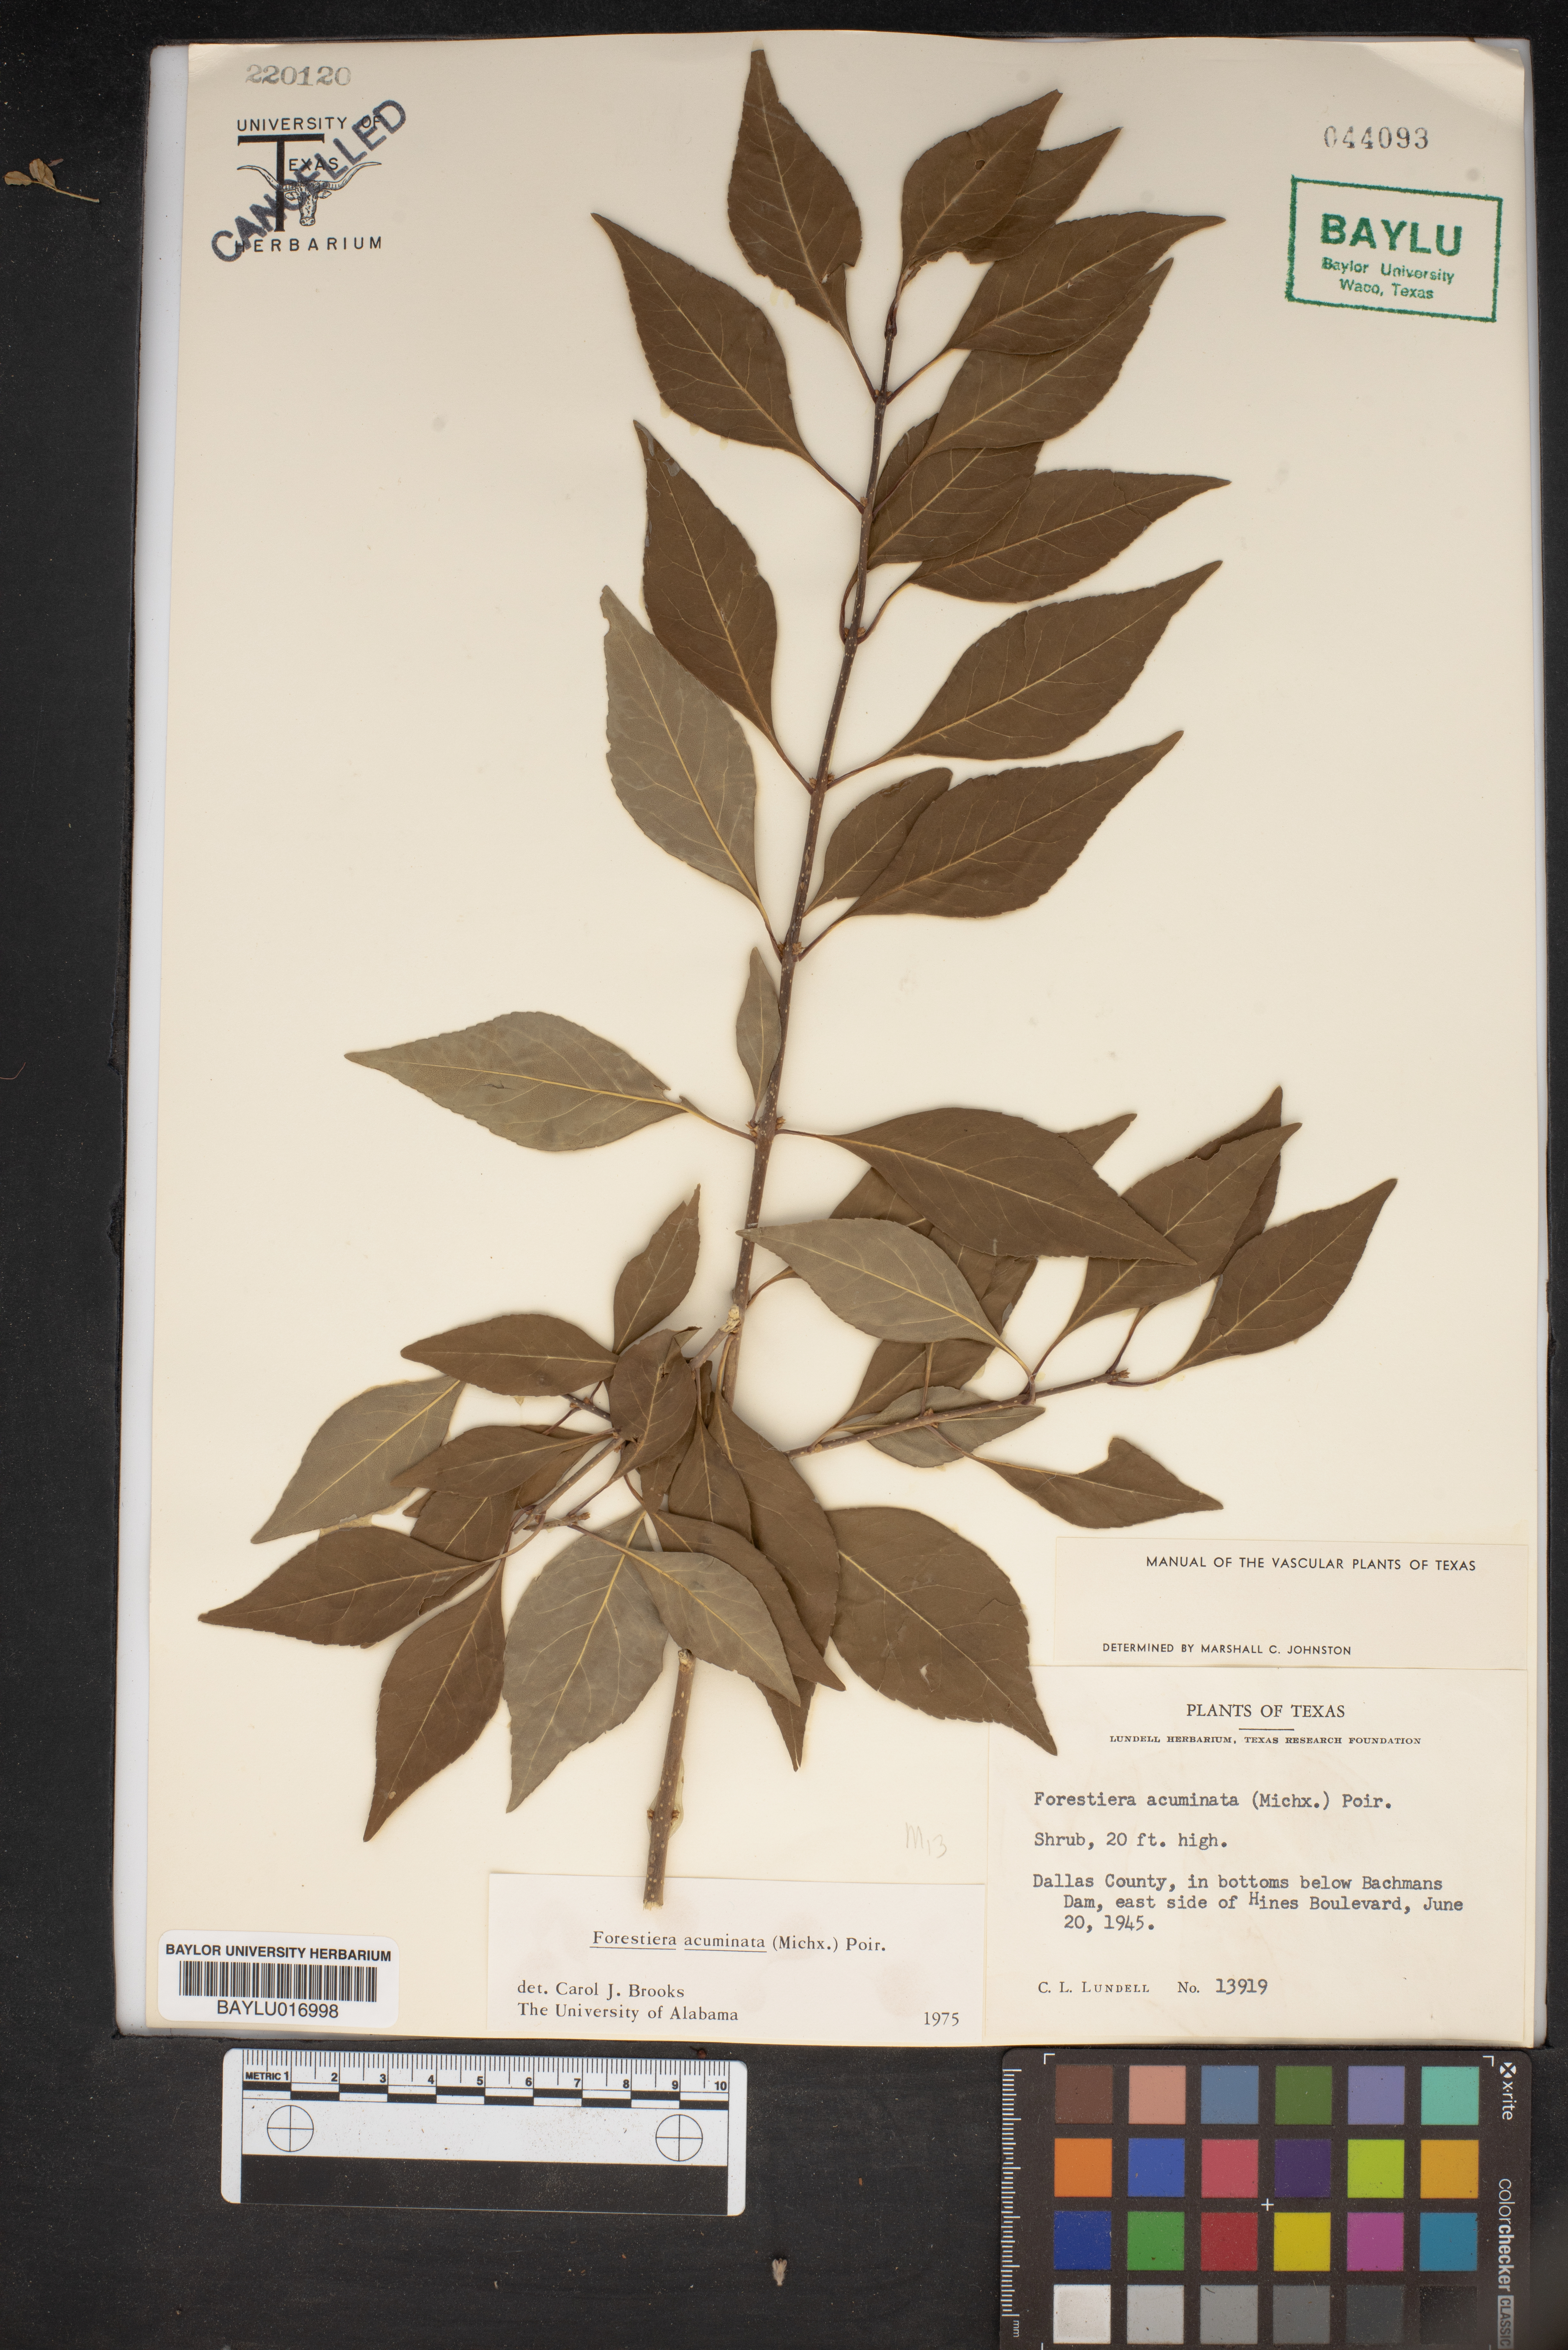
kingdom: Plantae
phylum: Tracheophyta
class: Magnoliopsida
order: Lamiales
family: Oleaceae
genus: Forestiera
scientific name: Forestiera acuminata
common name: Swamp-privet
